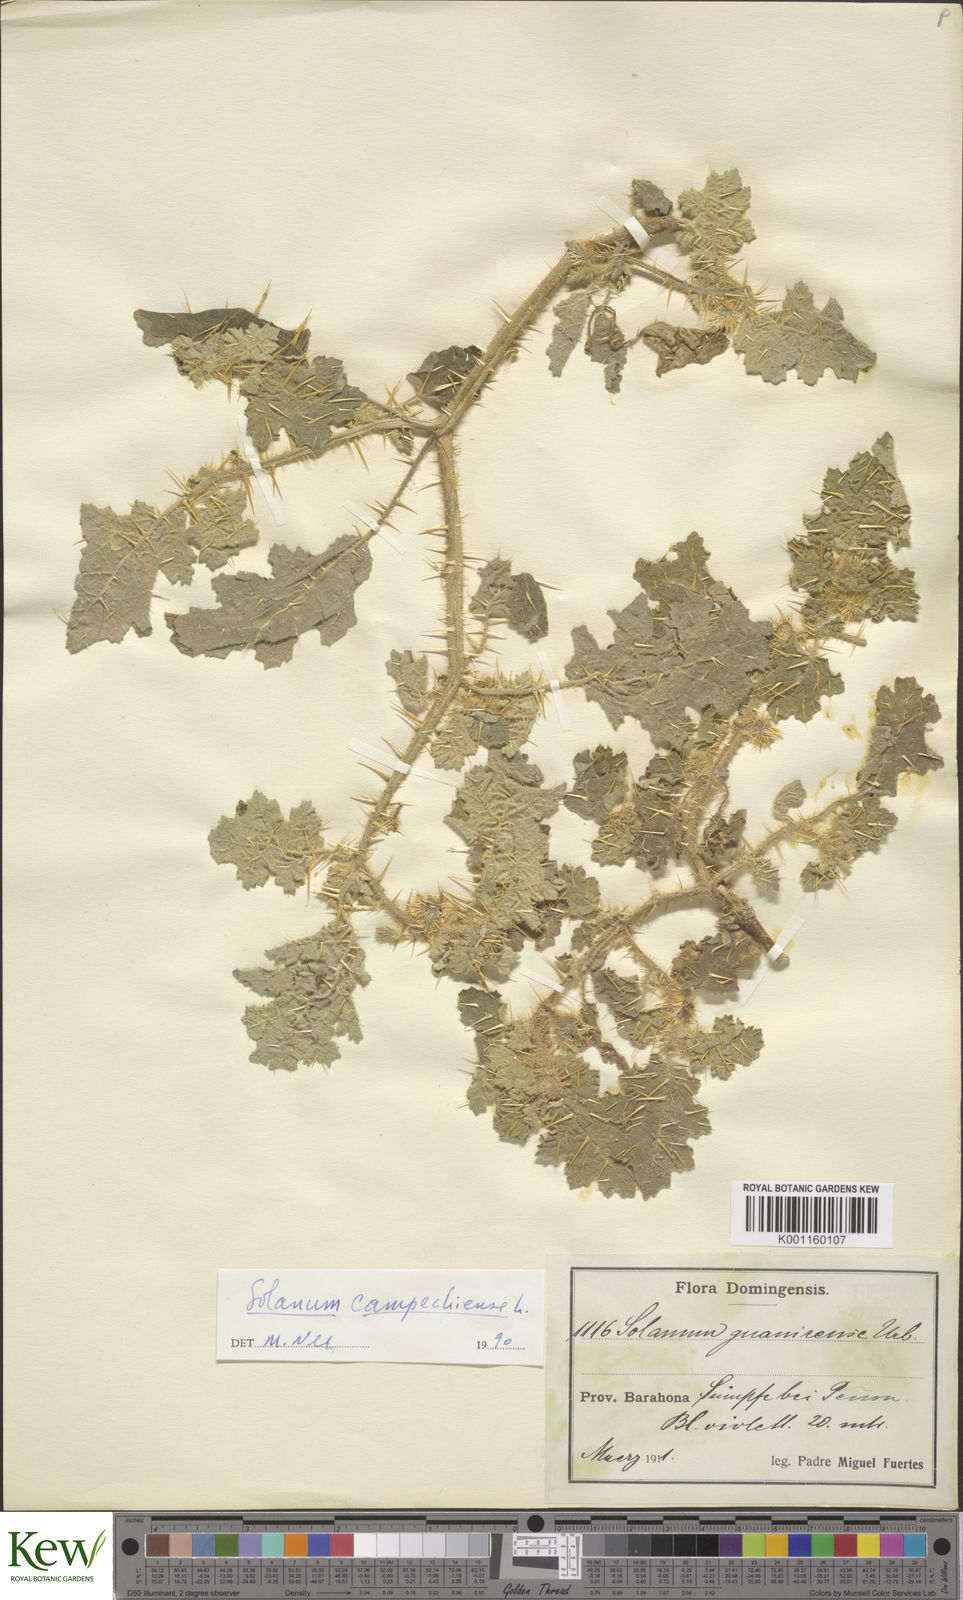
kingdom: Plantae
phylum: Tracheophyta
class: Magnoliopsida
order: Solanales
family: Solanaceae
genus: Solanum
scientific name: Solanum campechiense
